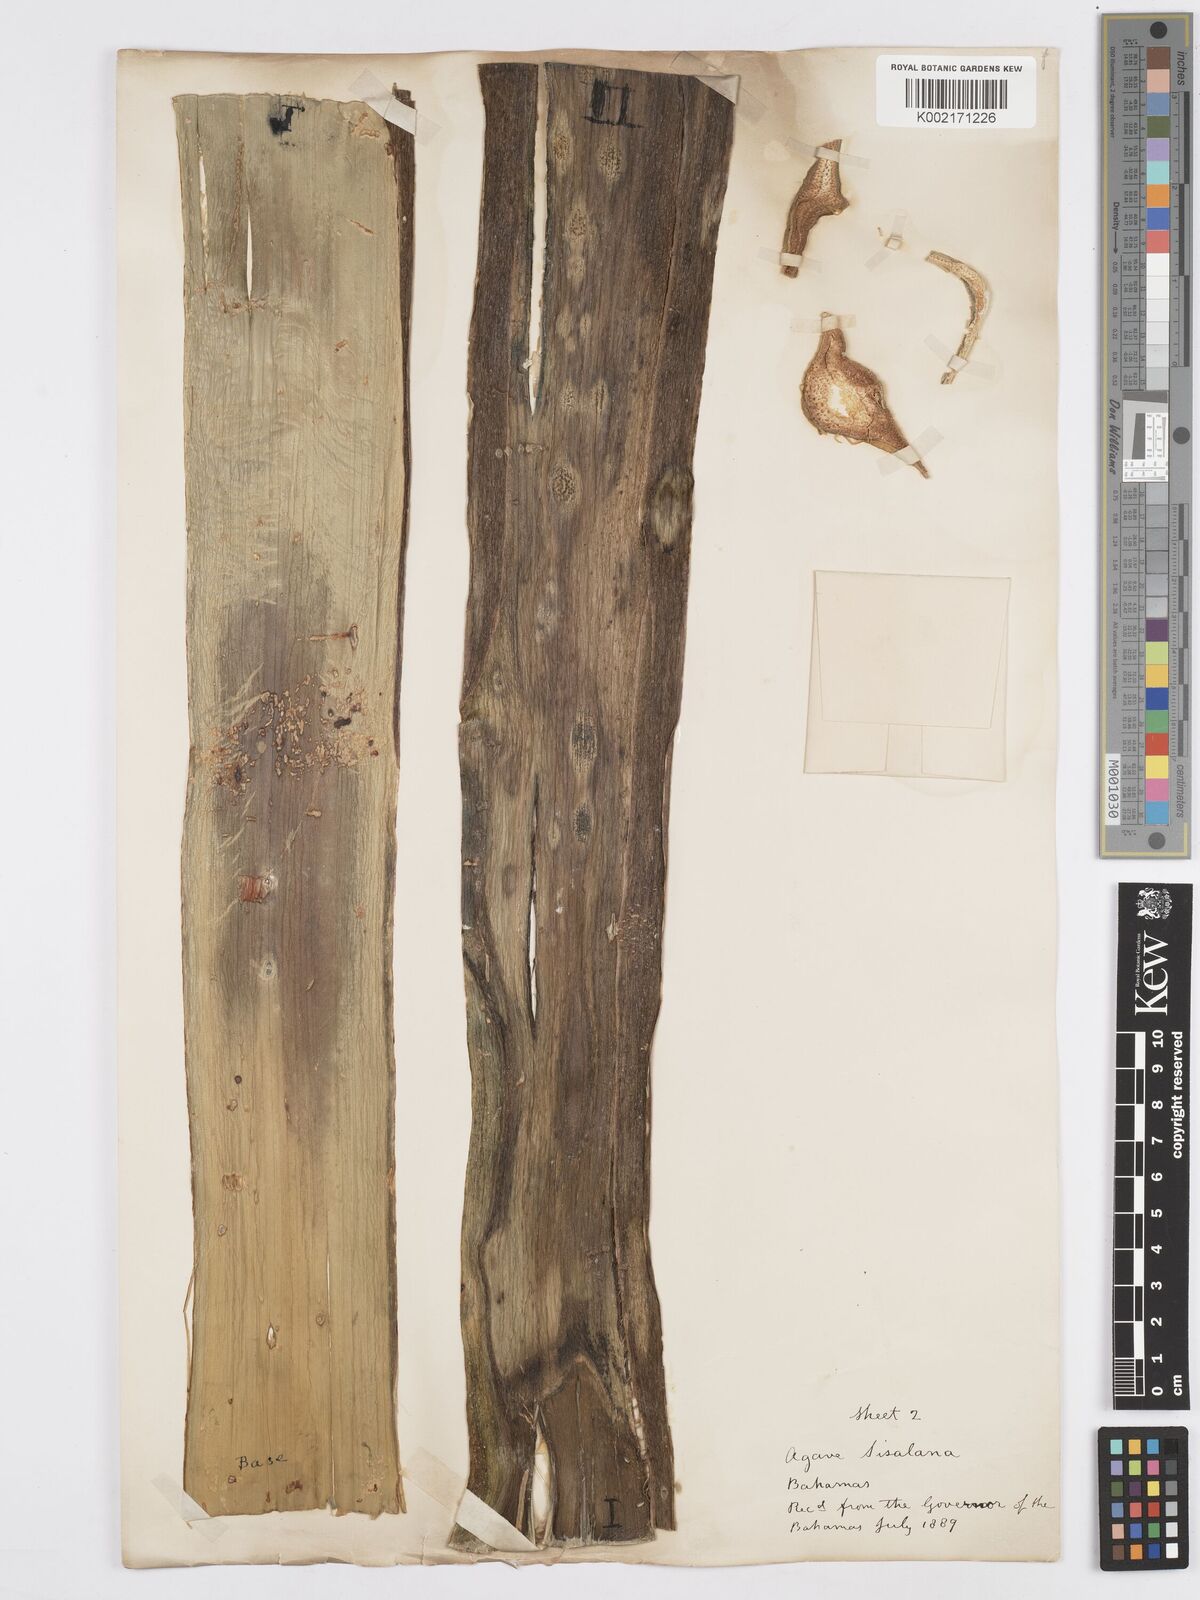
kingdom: Plantae
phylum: Tracheophyta
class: Liliopsida
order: Asparagales
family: Asparagaceae
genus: Agave
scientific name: Agave sisalana
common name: Sisal hemp
